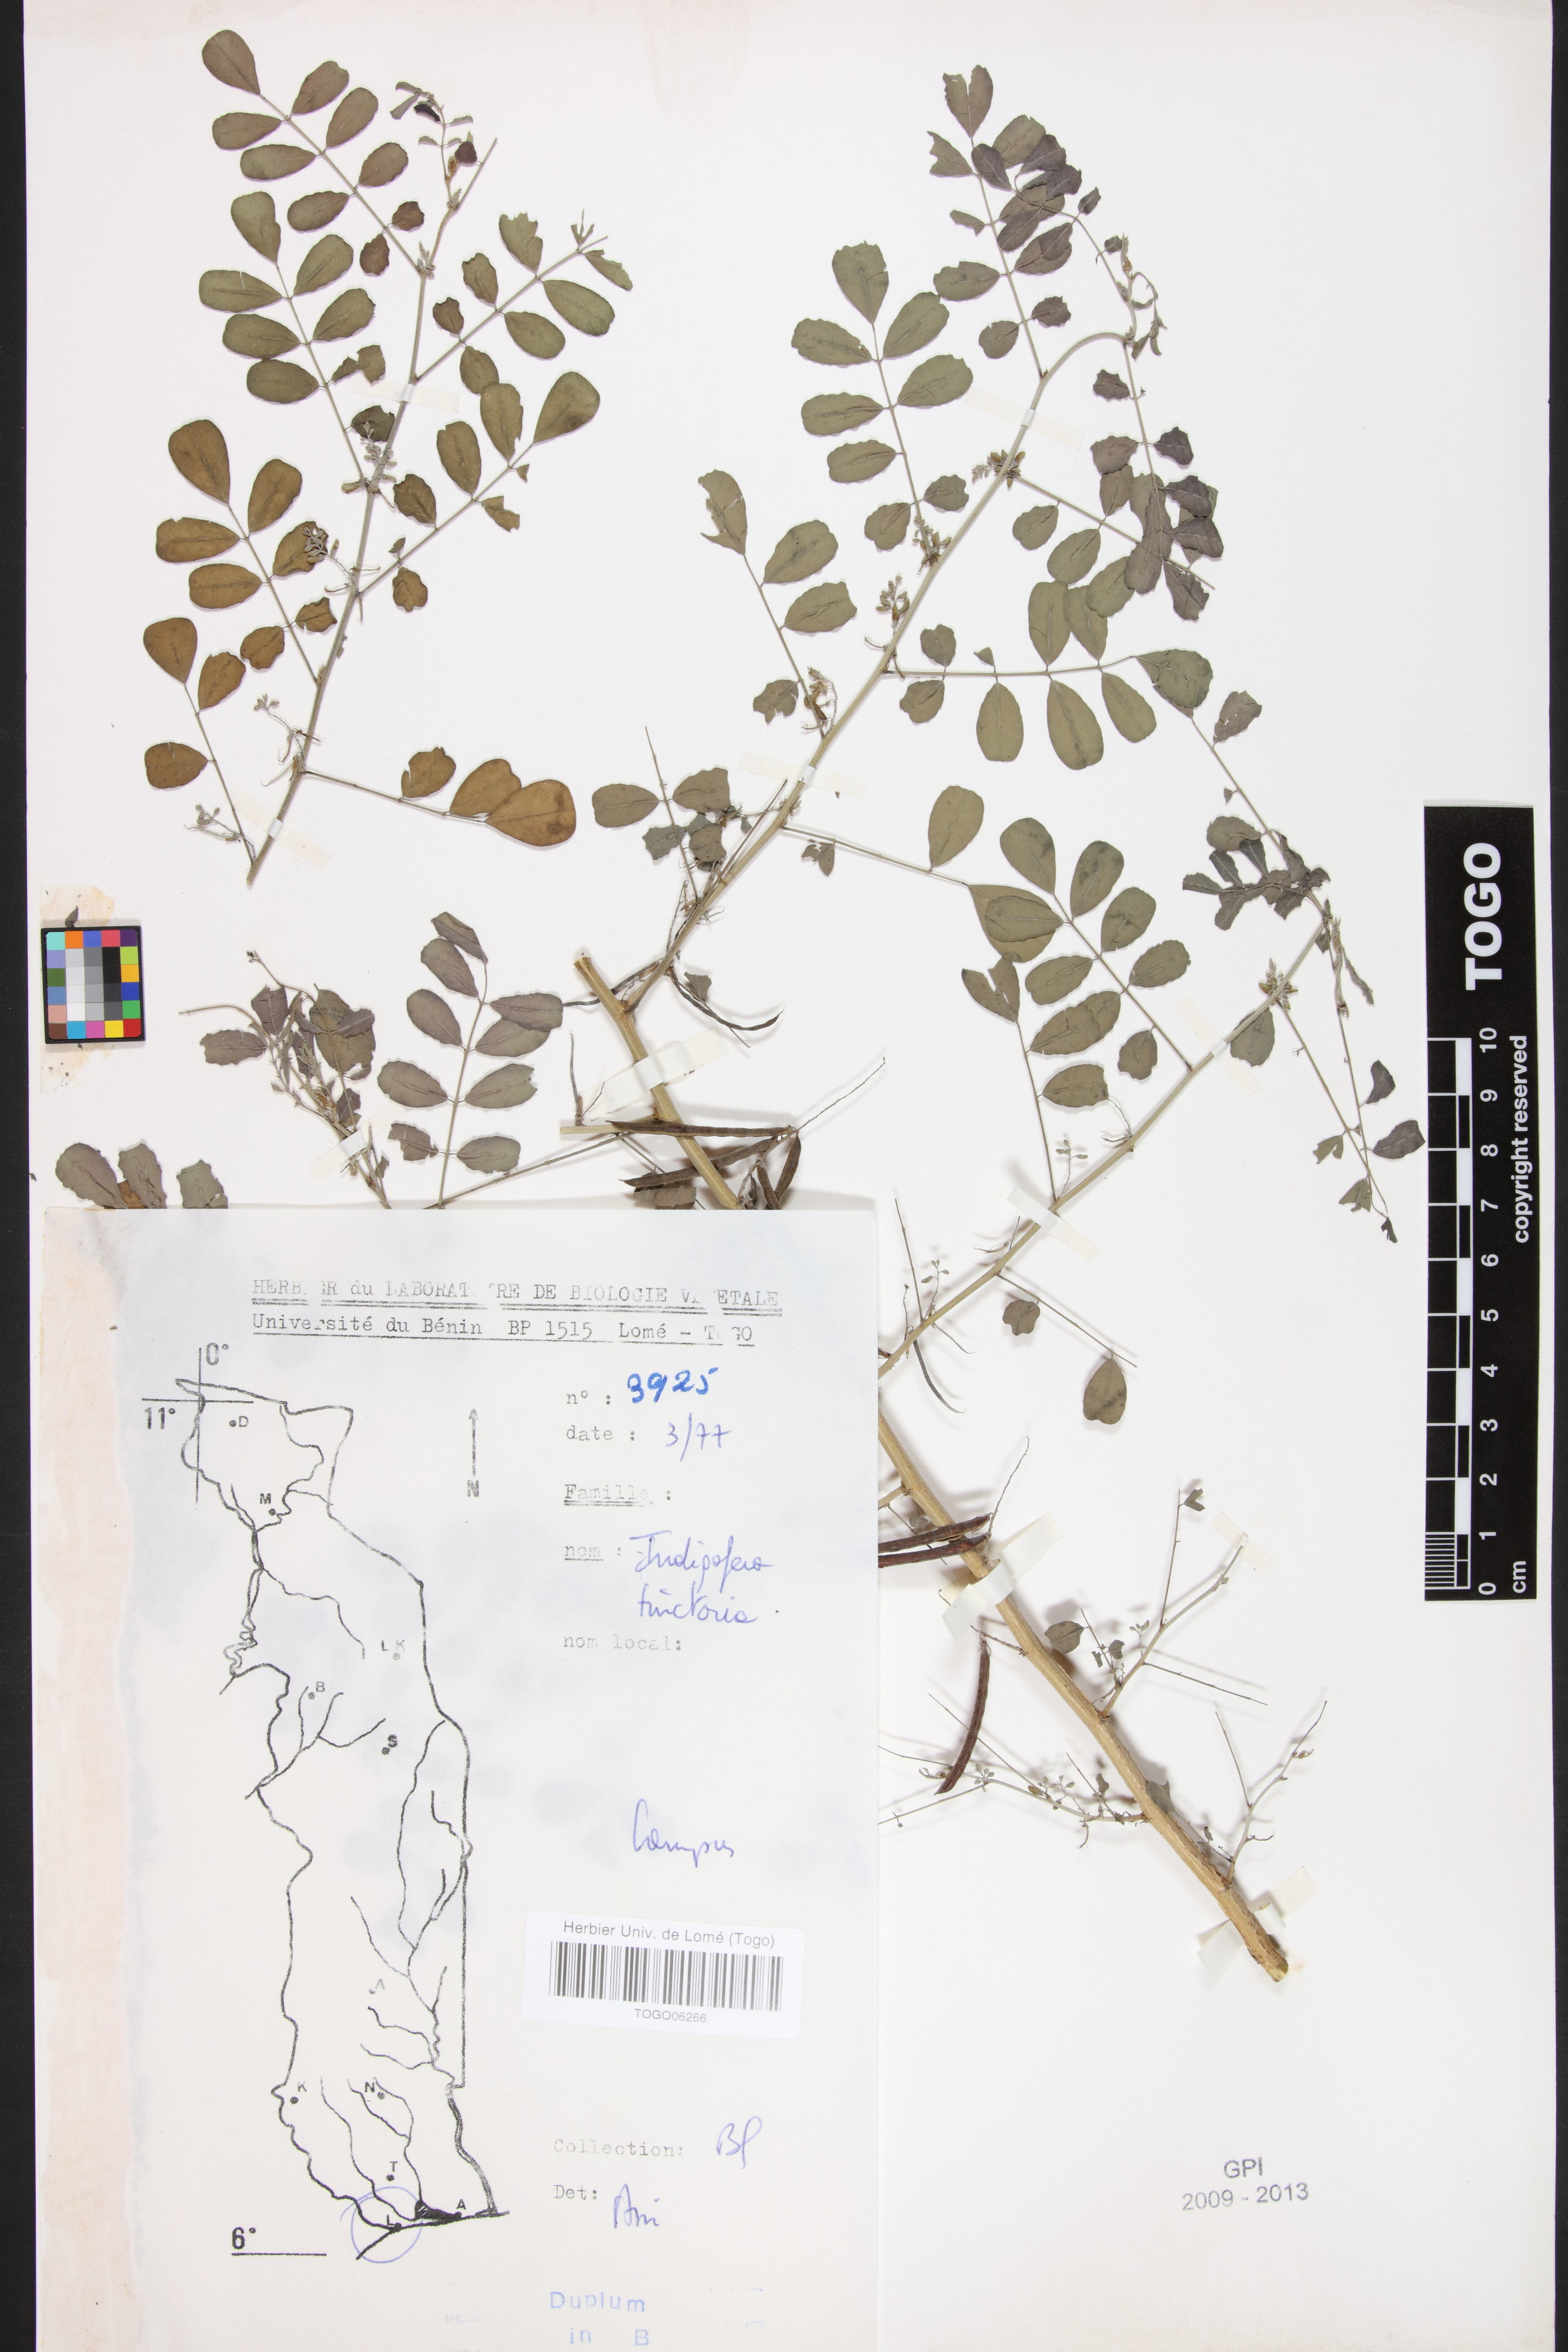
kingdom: Plantae
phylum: Tracheophyta
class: Magnoliopsida
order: Fabales
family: Fabaceae
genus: Indigofera
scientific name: Indigofera tinctoria
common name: True indigo
